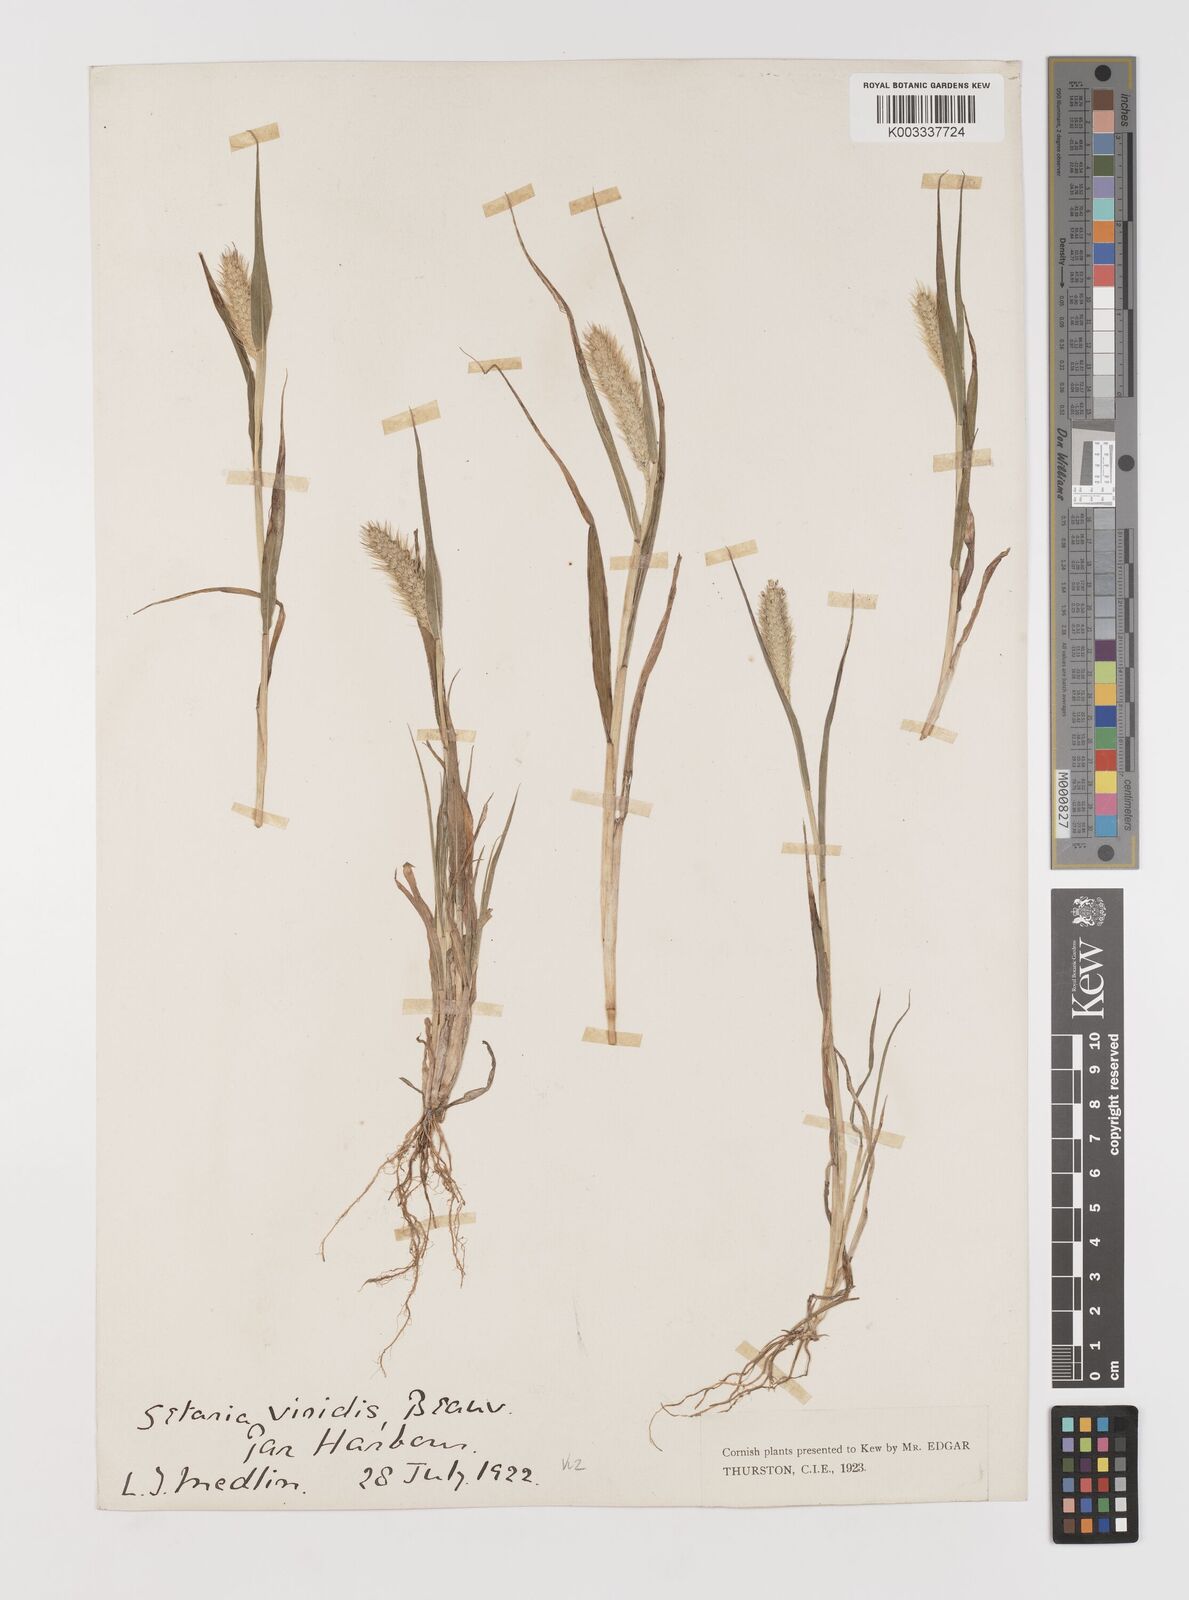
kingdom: Plantae
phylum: Tracheophyta
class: Liliopsida
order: Poales
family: Poaceae
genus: Setaria
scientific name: Setaria viridis
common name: Green bristlegrass
